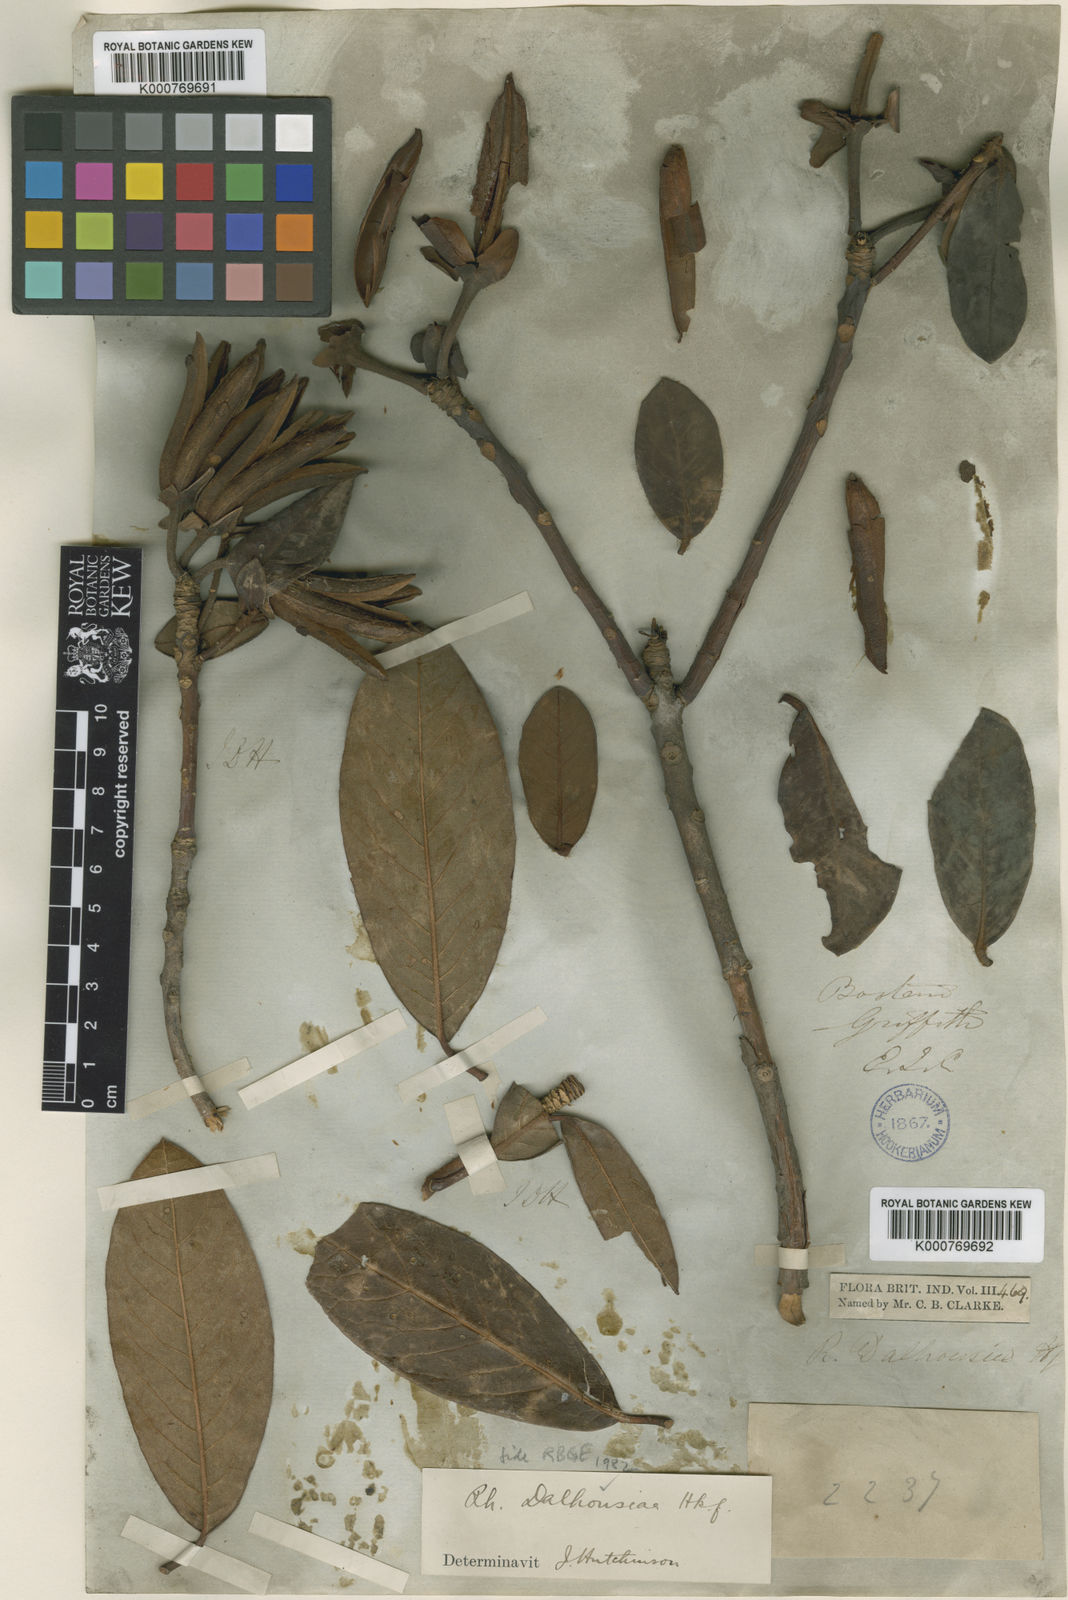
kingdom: Plantae
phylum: Tracheophyta
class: Magnoliopsida
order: Ericales
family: Ericaceae
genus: Rhododendron
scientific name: Rhododendron ciliatum
